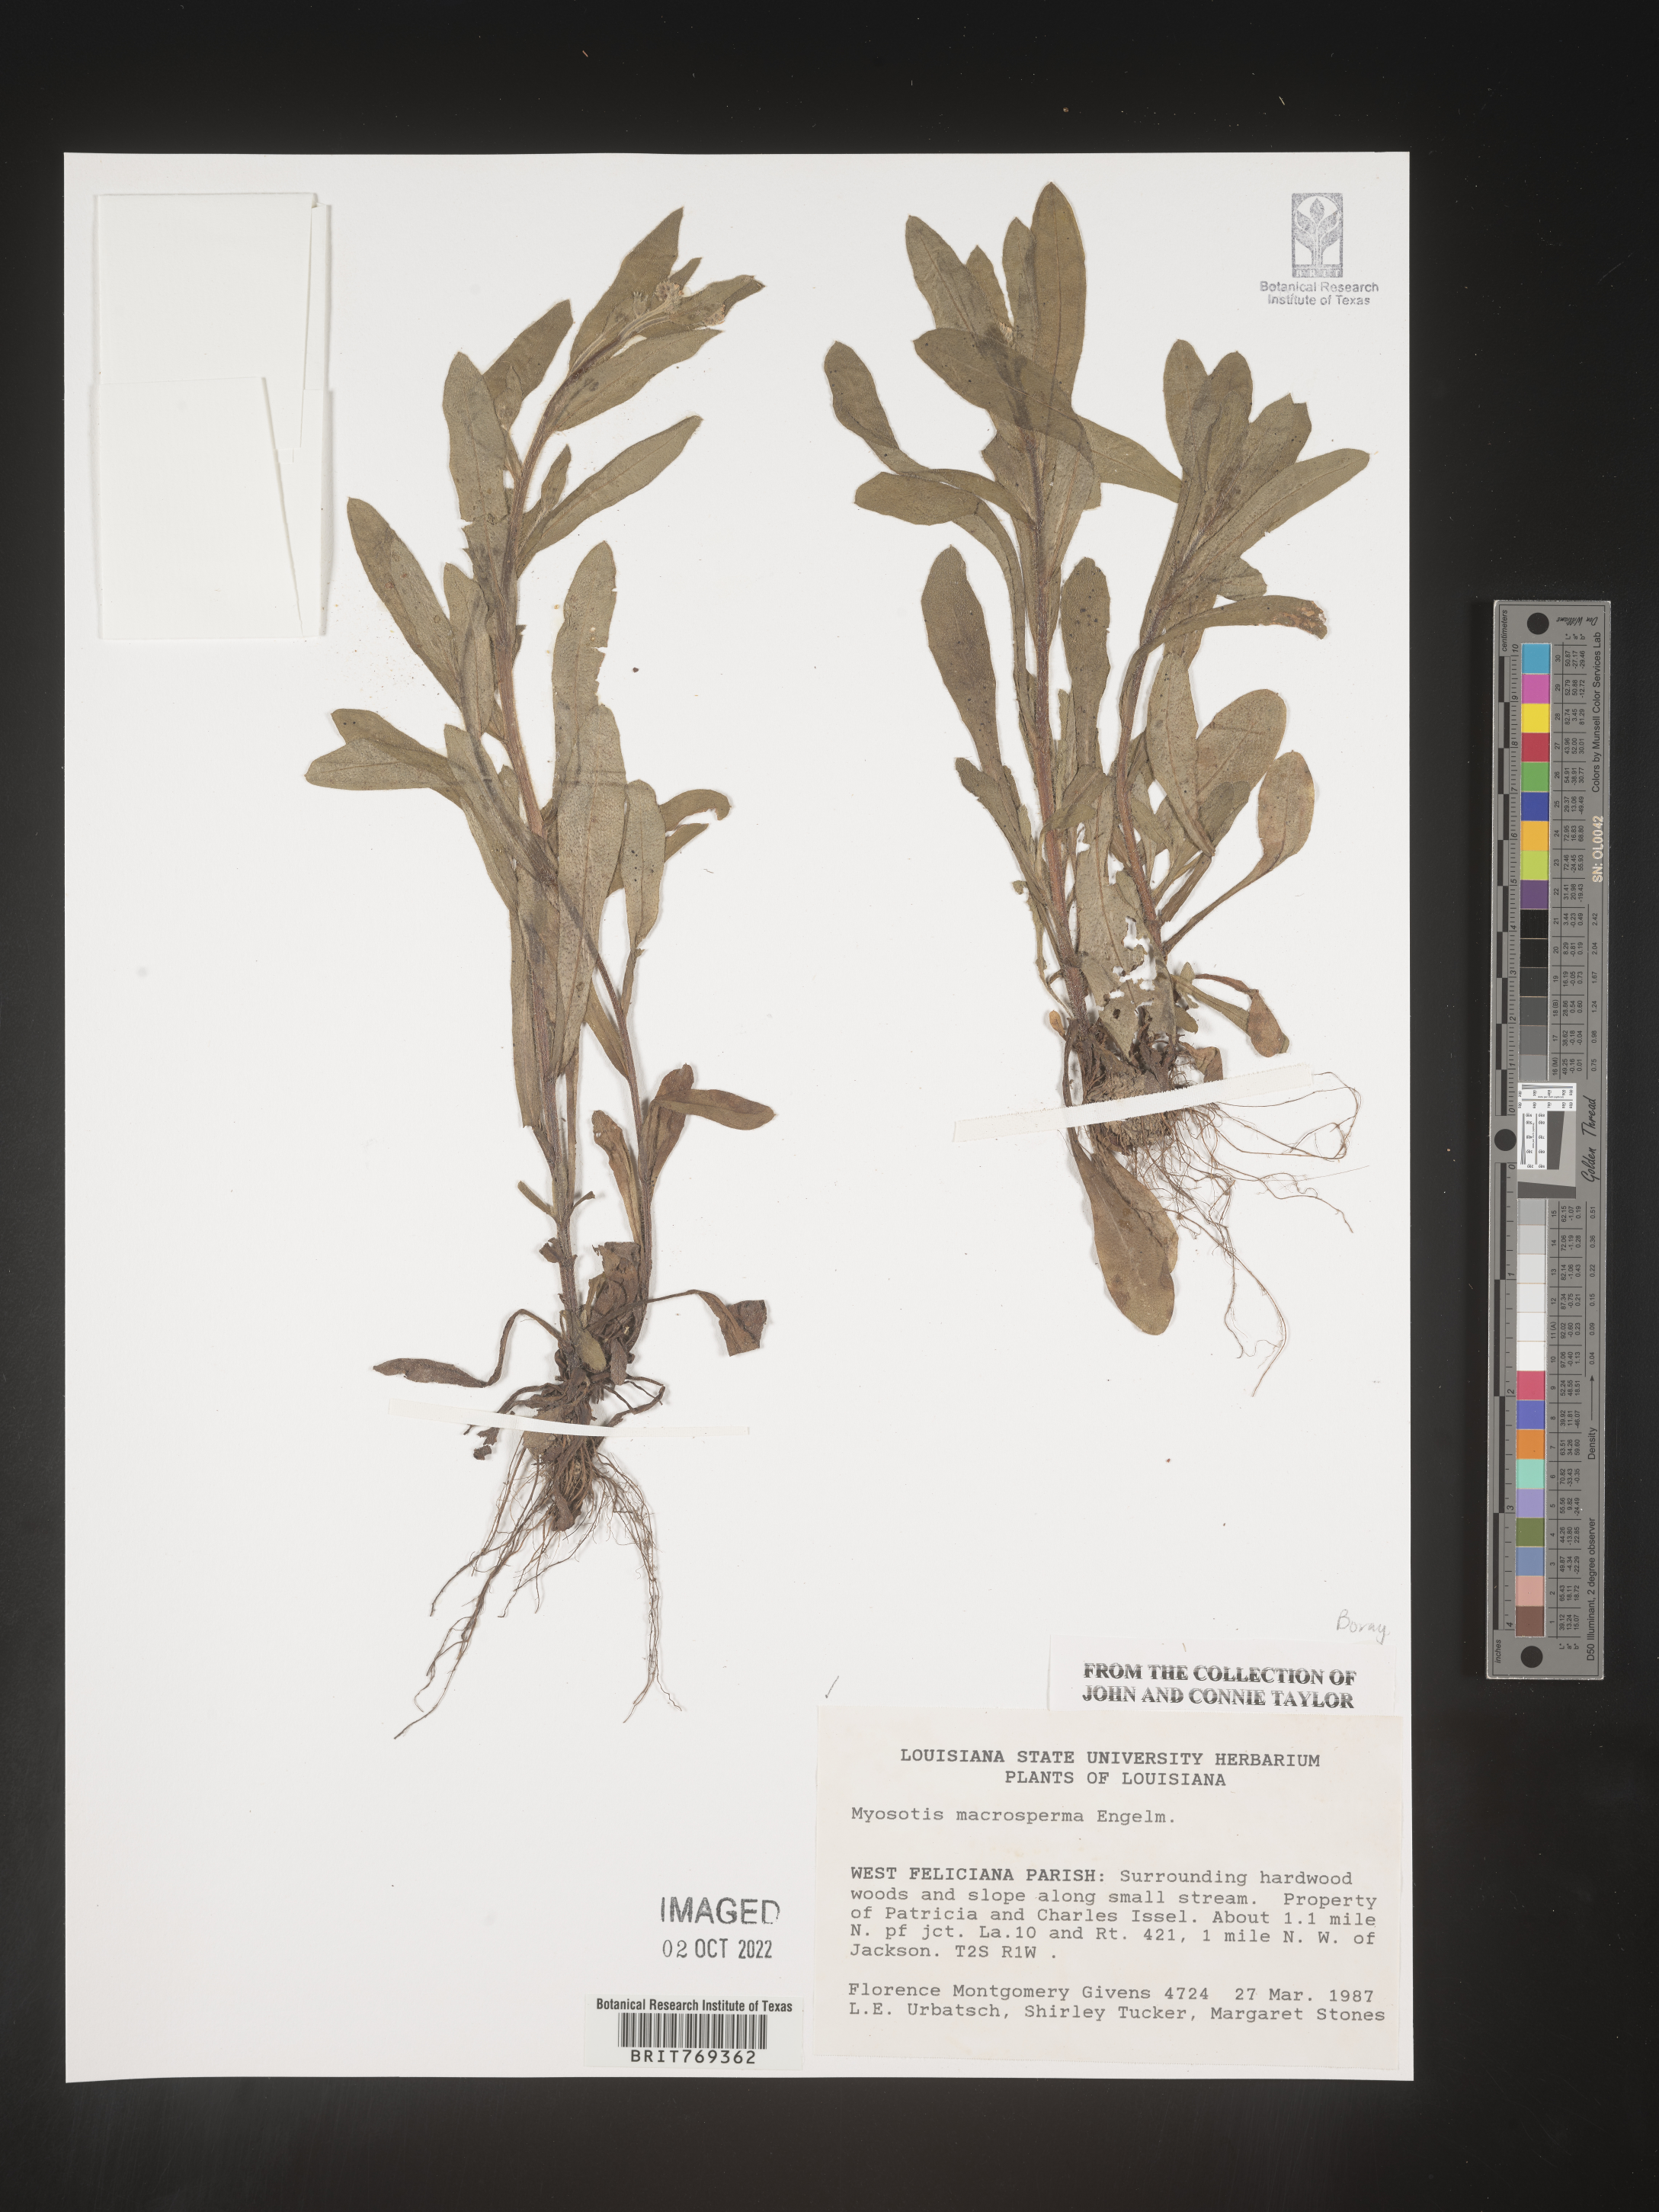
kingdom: Plantae
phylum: Tracheophyta
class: Magnoliopsida
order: Boraginales
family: Boraginaceae
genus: Myosotis
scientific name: Myosotis macrosperma
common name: Large-seed forget-me-not
